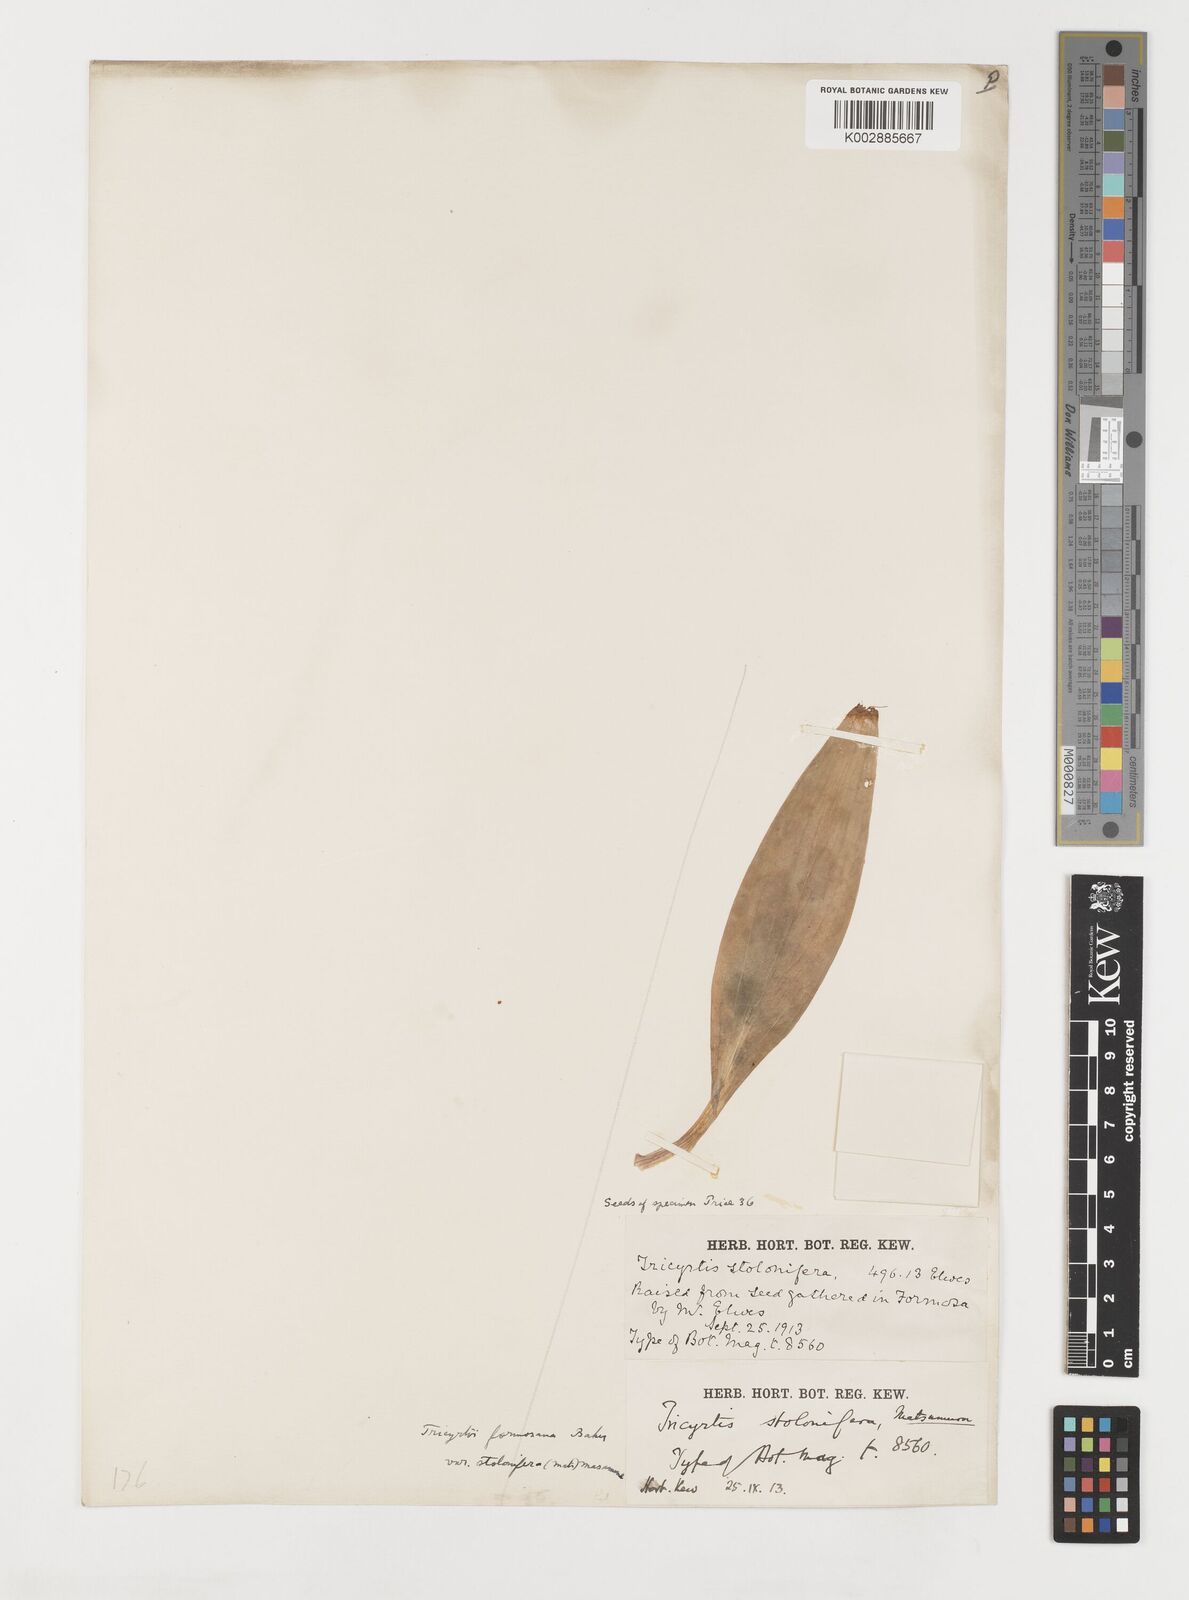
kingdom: Plantae
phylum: Tracheophyta
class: Liliopsida
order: Liliales
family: Liliaceae
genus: Tricyrtis
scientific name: Tricyrtis formosana
